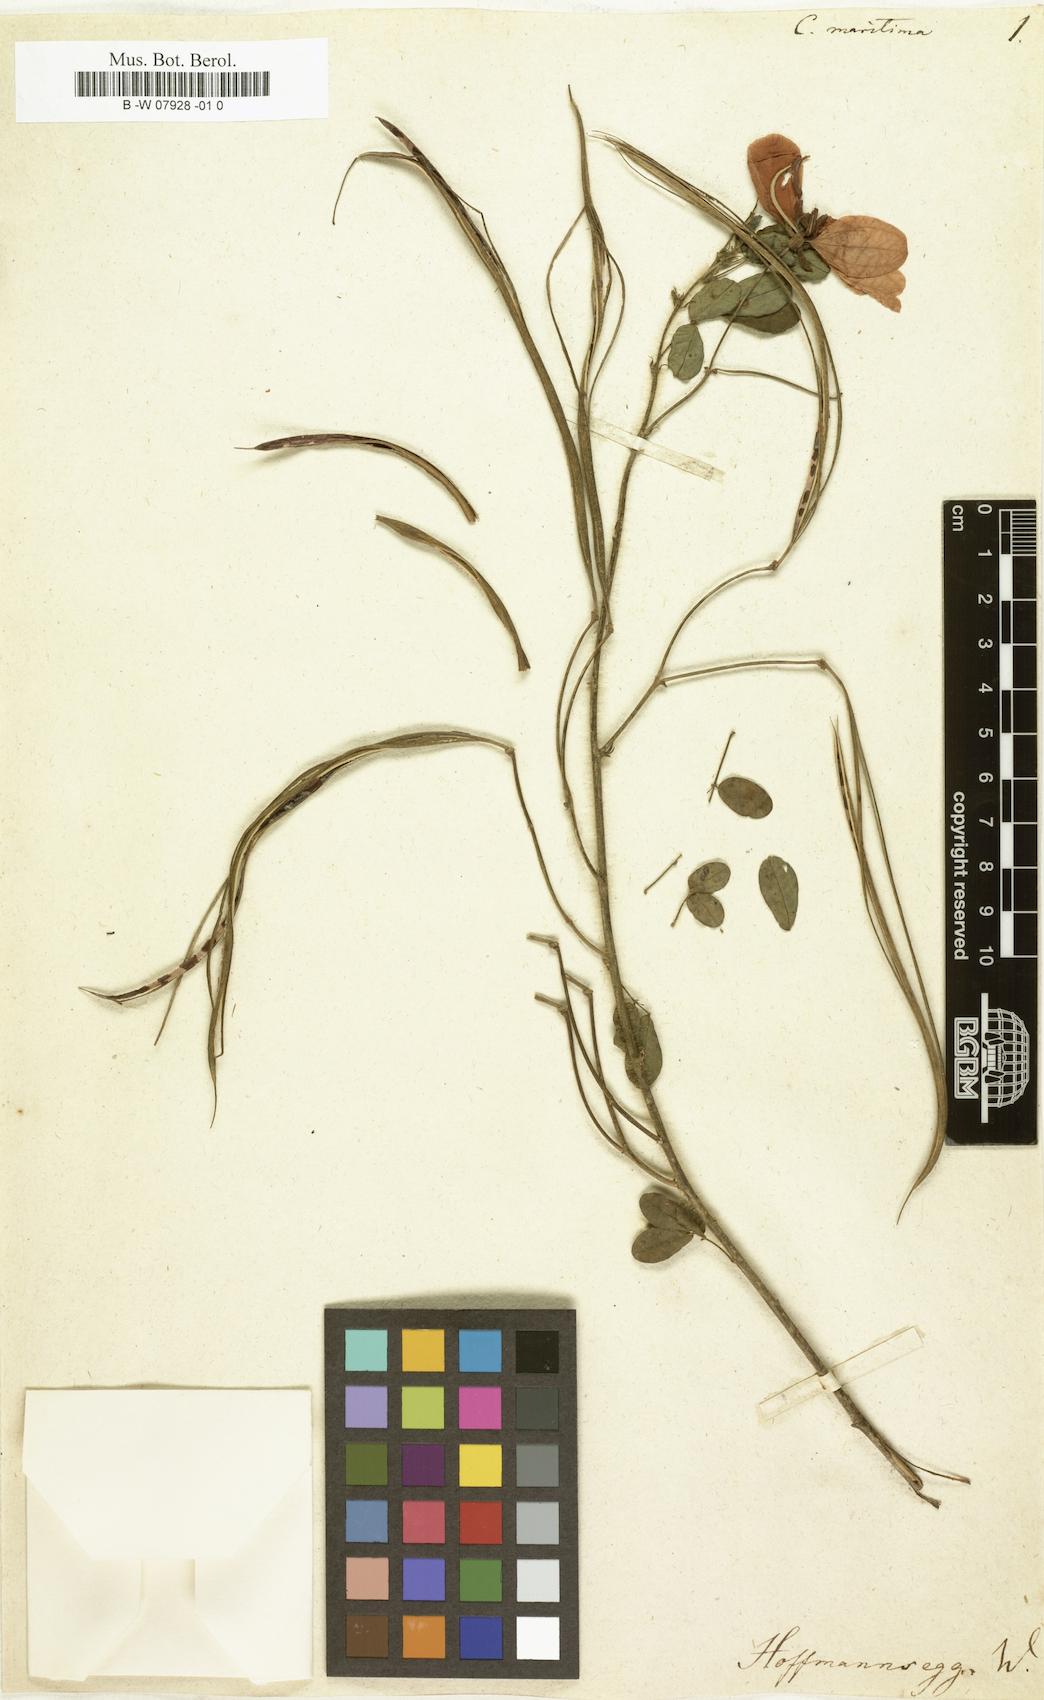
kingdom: Plantae
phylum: Tracheophyta
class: Magnoliopsida
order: Fabales
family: Fabaceae
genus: Senna
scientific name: Senna pilifera
